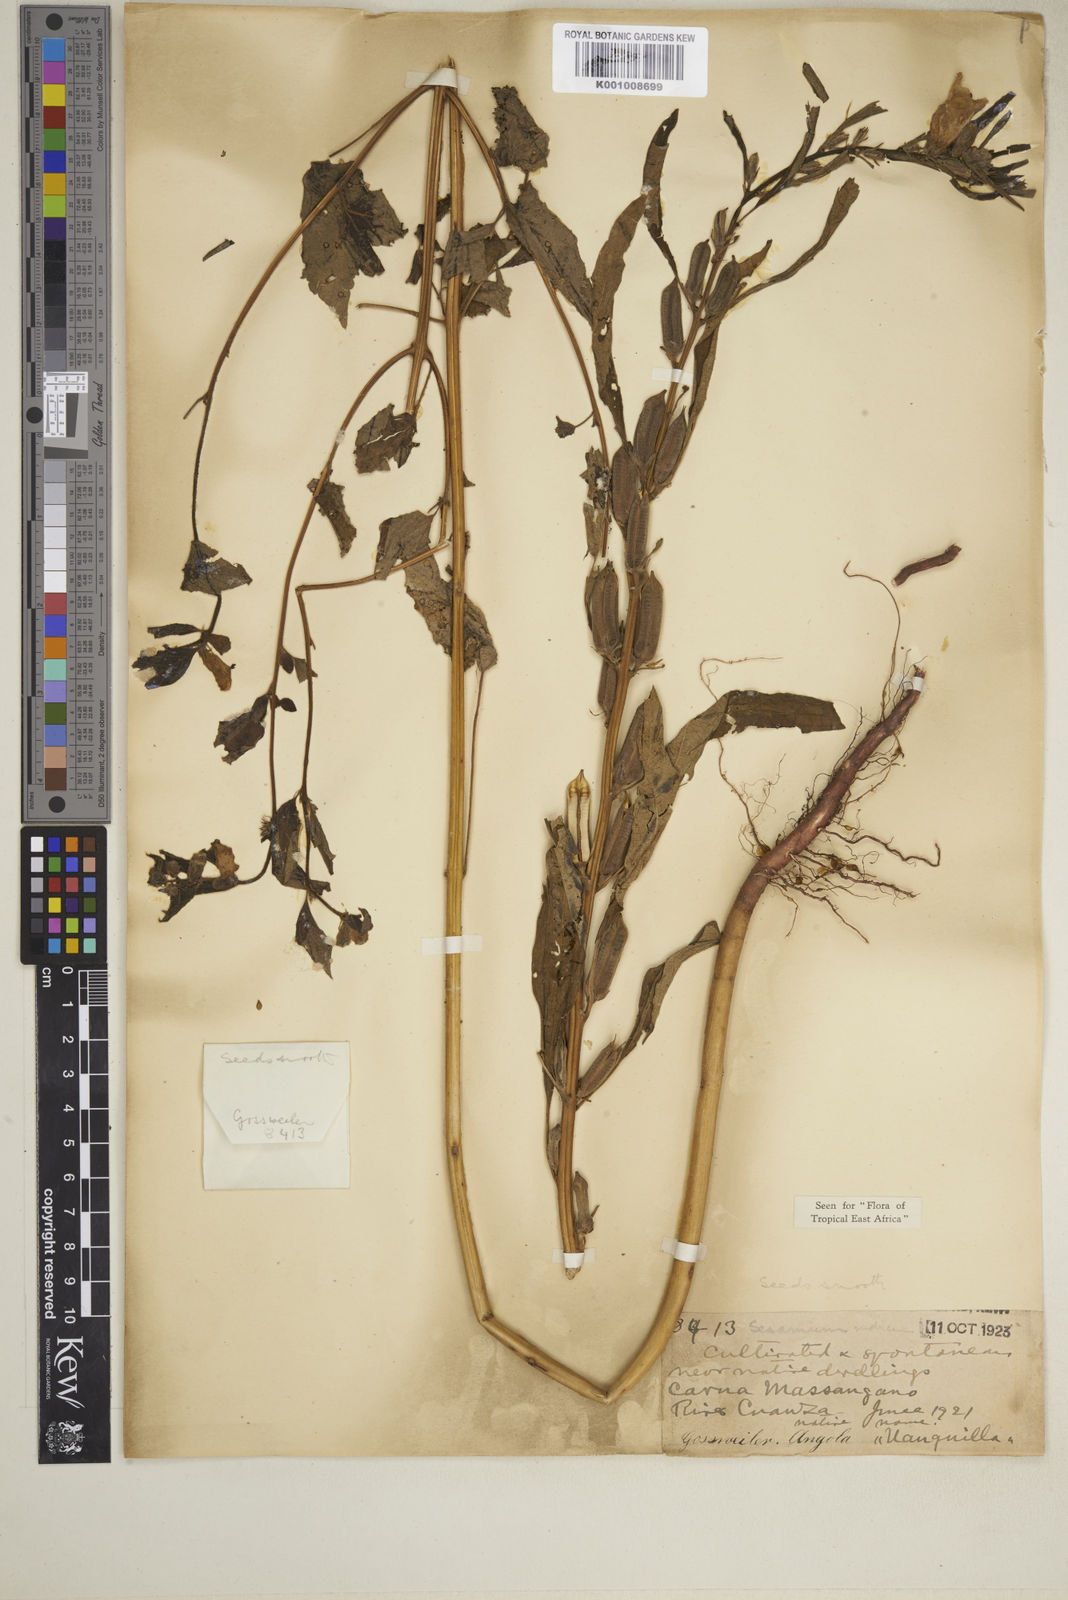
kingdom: Plantae
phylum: Tracheophyta
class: Magnoliopsida
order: Lamiales
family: Pedaliaceae
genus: Sesamum
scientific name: Sesamum indicum
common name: Sesame
